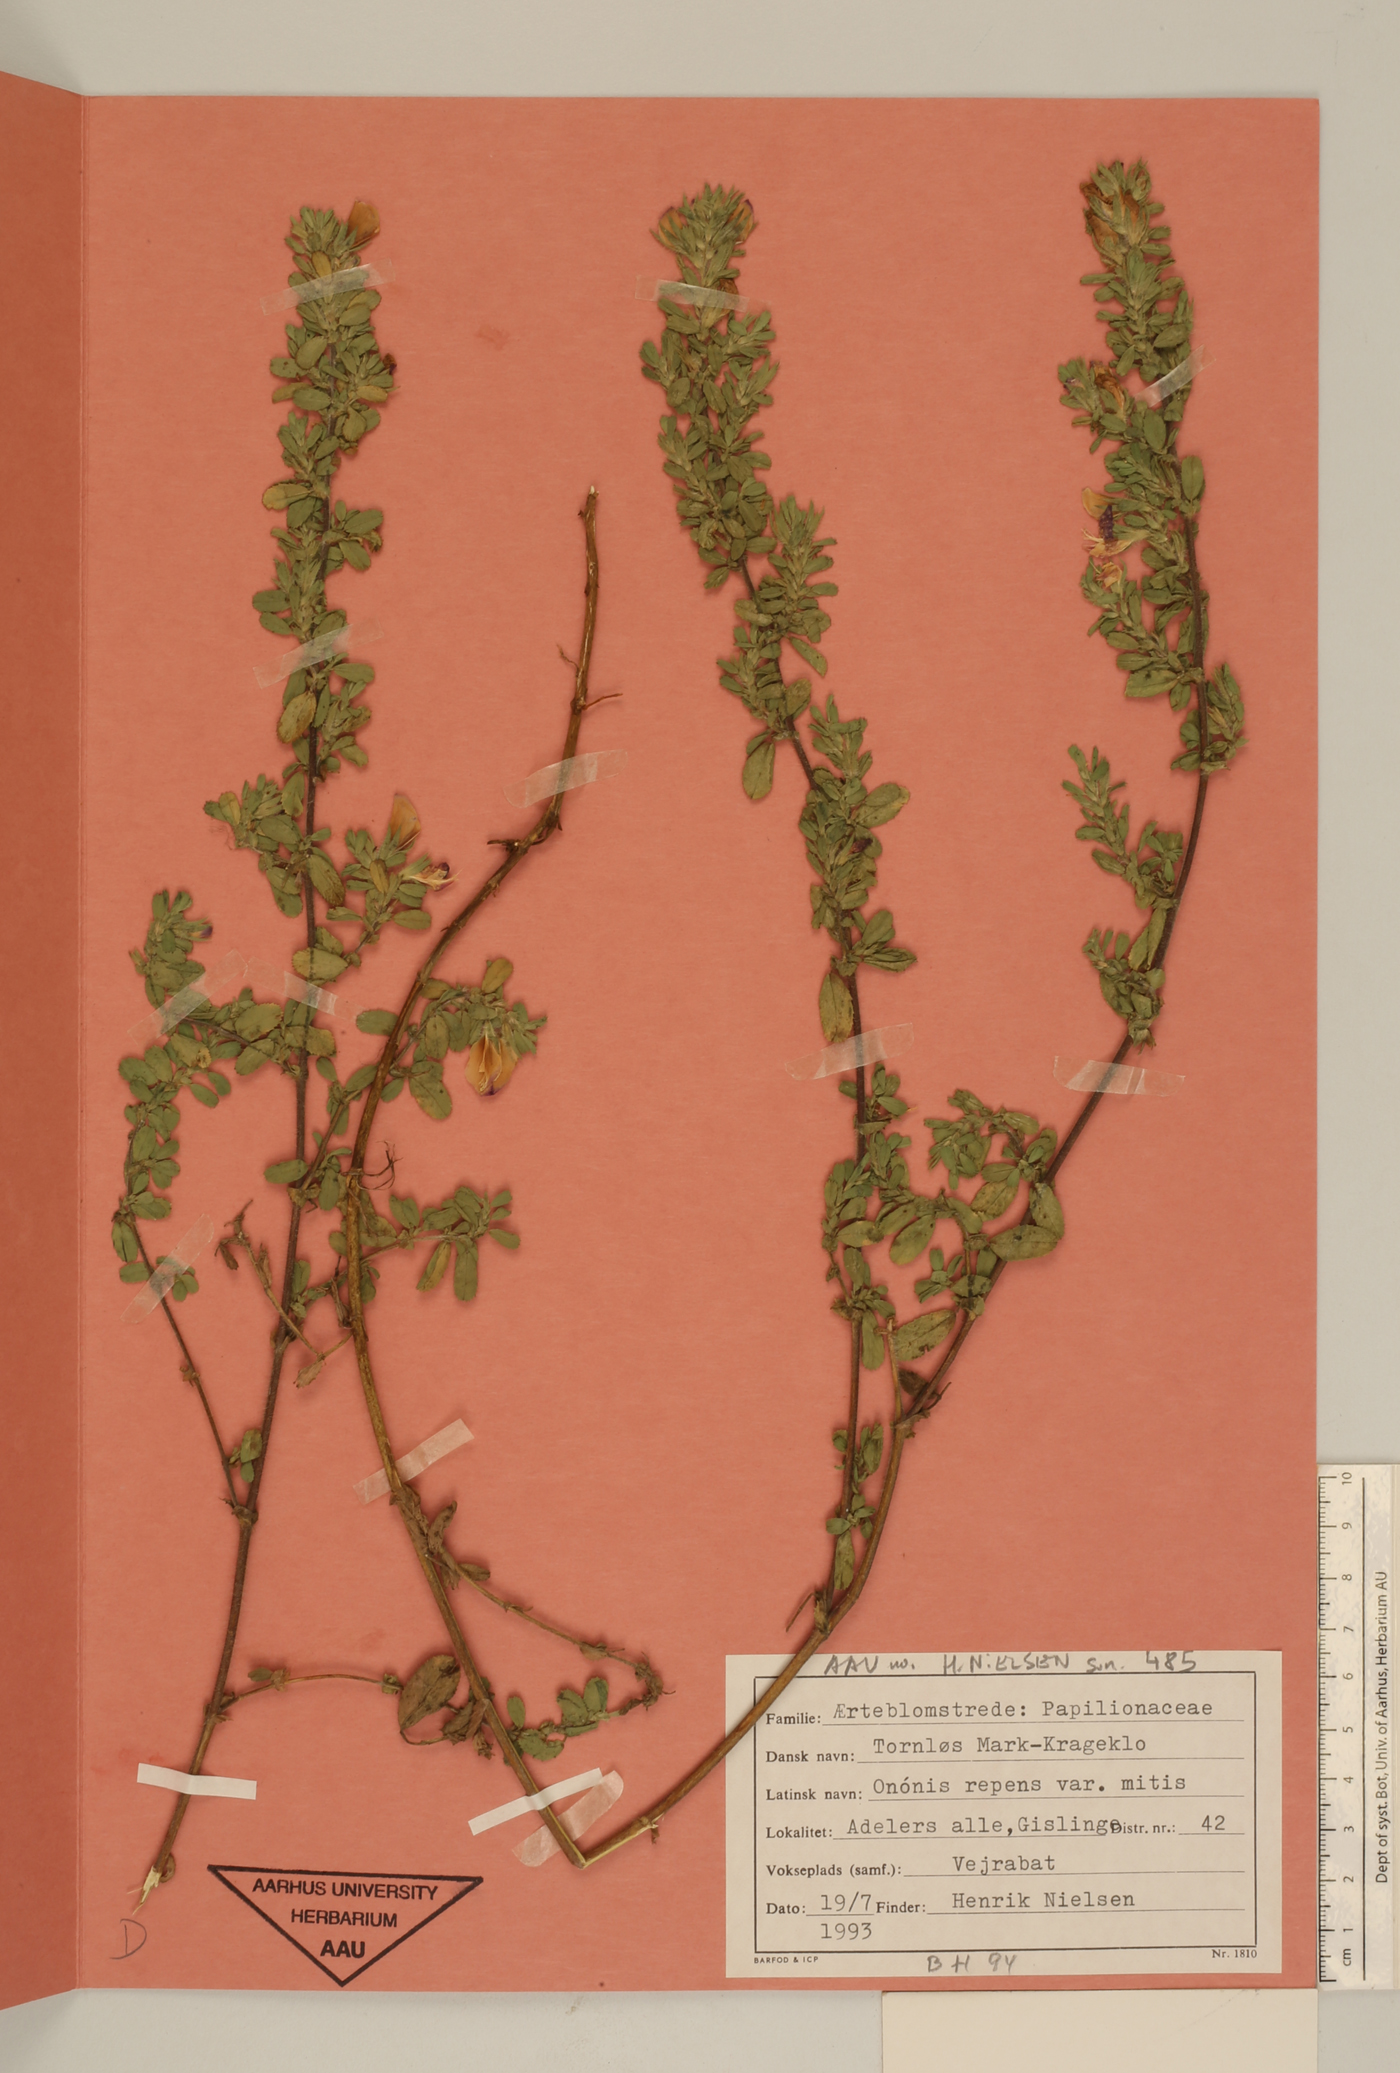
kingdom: Plantae
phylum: Tracheophyta
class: Magnoliopsida
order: Fabales
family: Fabaceae
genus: Ononis
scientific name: Ononis spinosa
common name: Spiny restharrow
